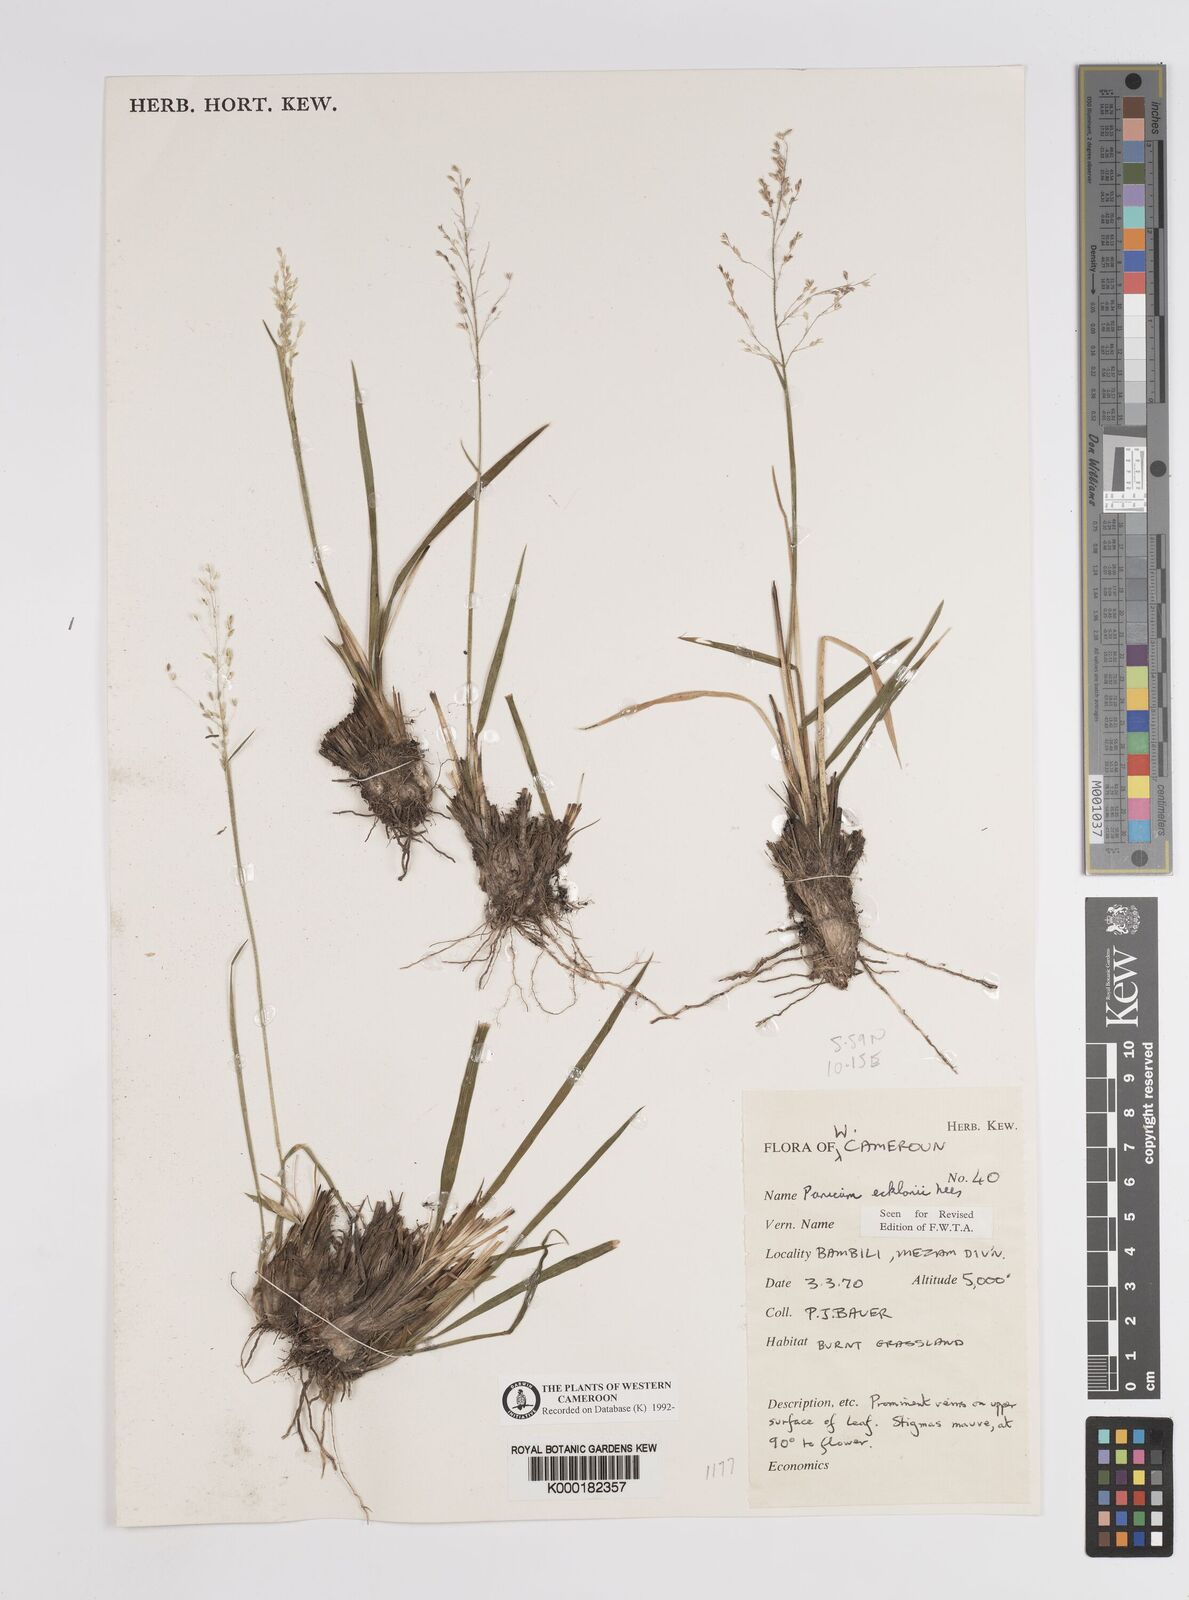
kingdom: Plantae
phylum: Tracheophyta
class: Liliopsida
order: Poales
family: Poaceae
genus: Adenochloa
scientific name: Adenochloa ecklonii
